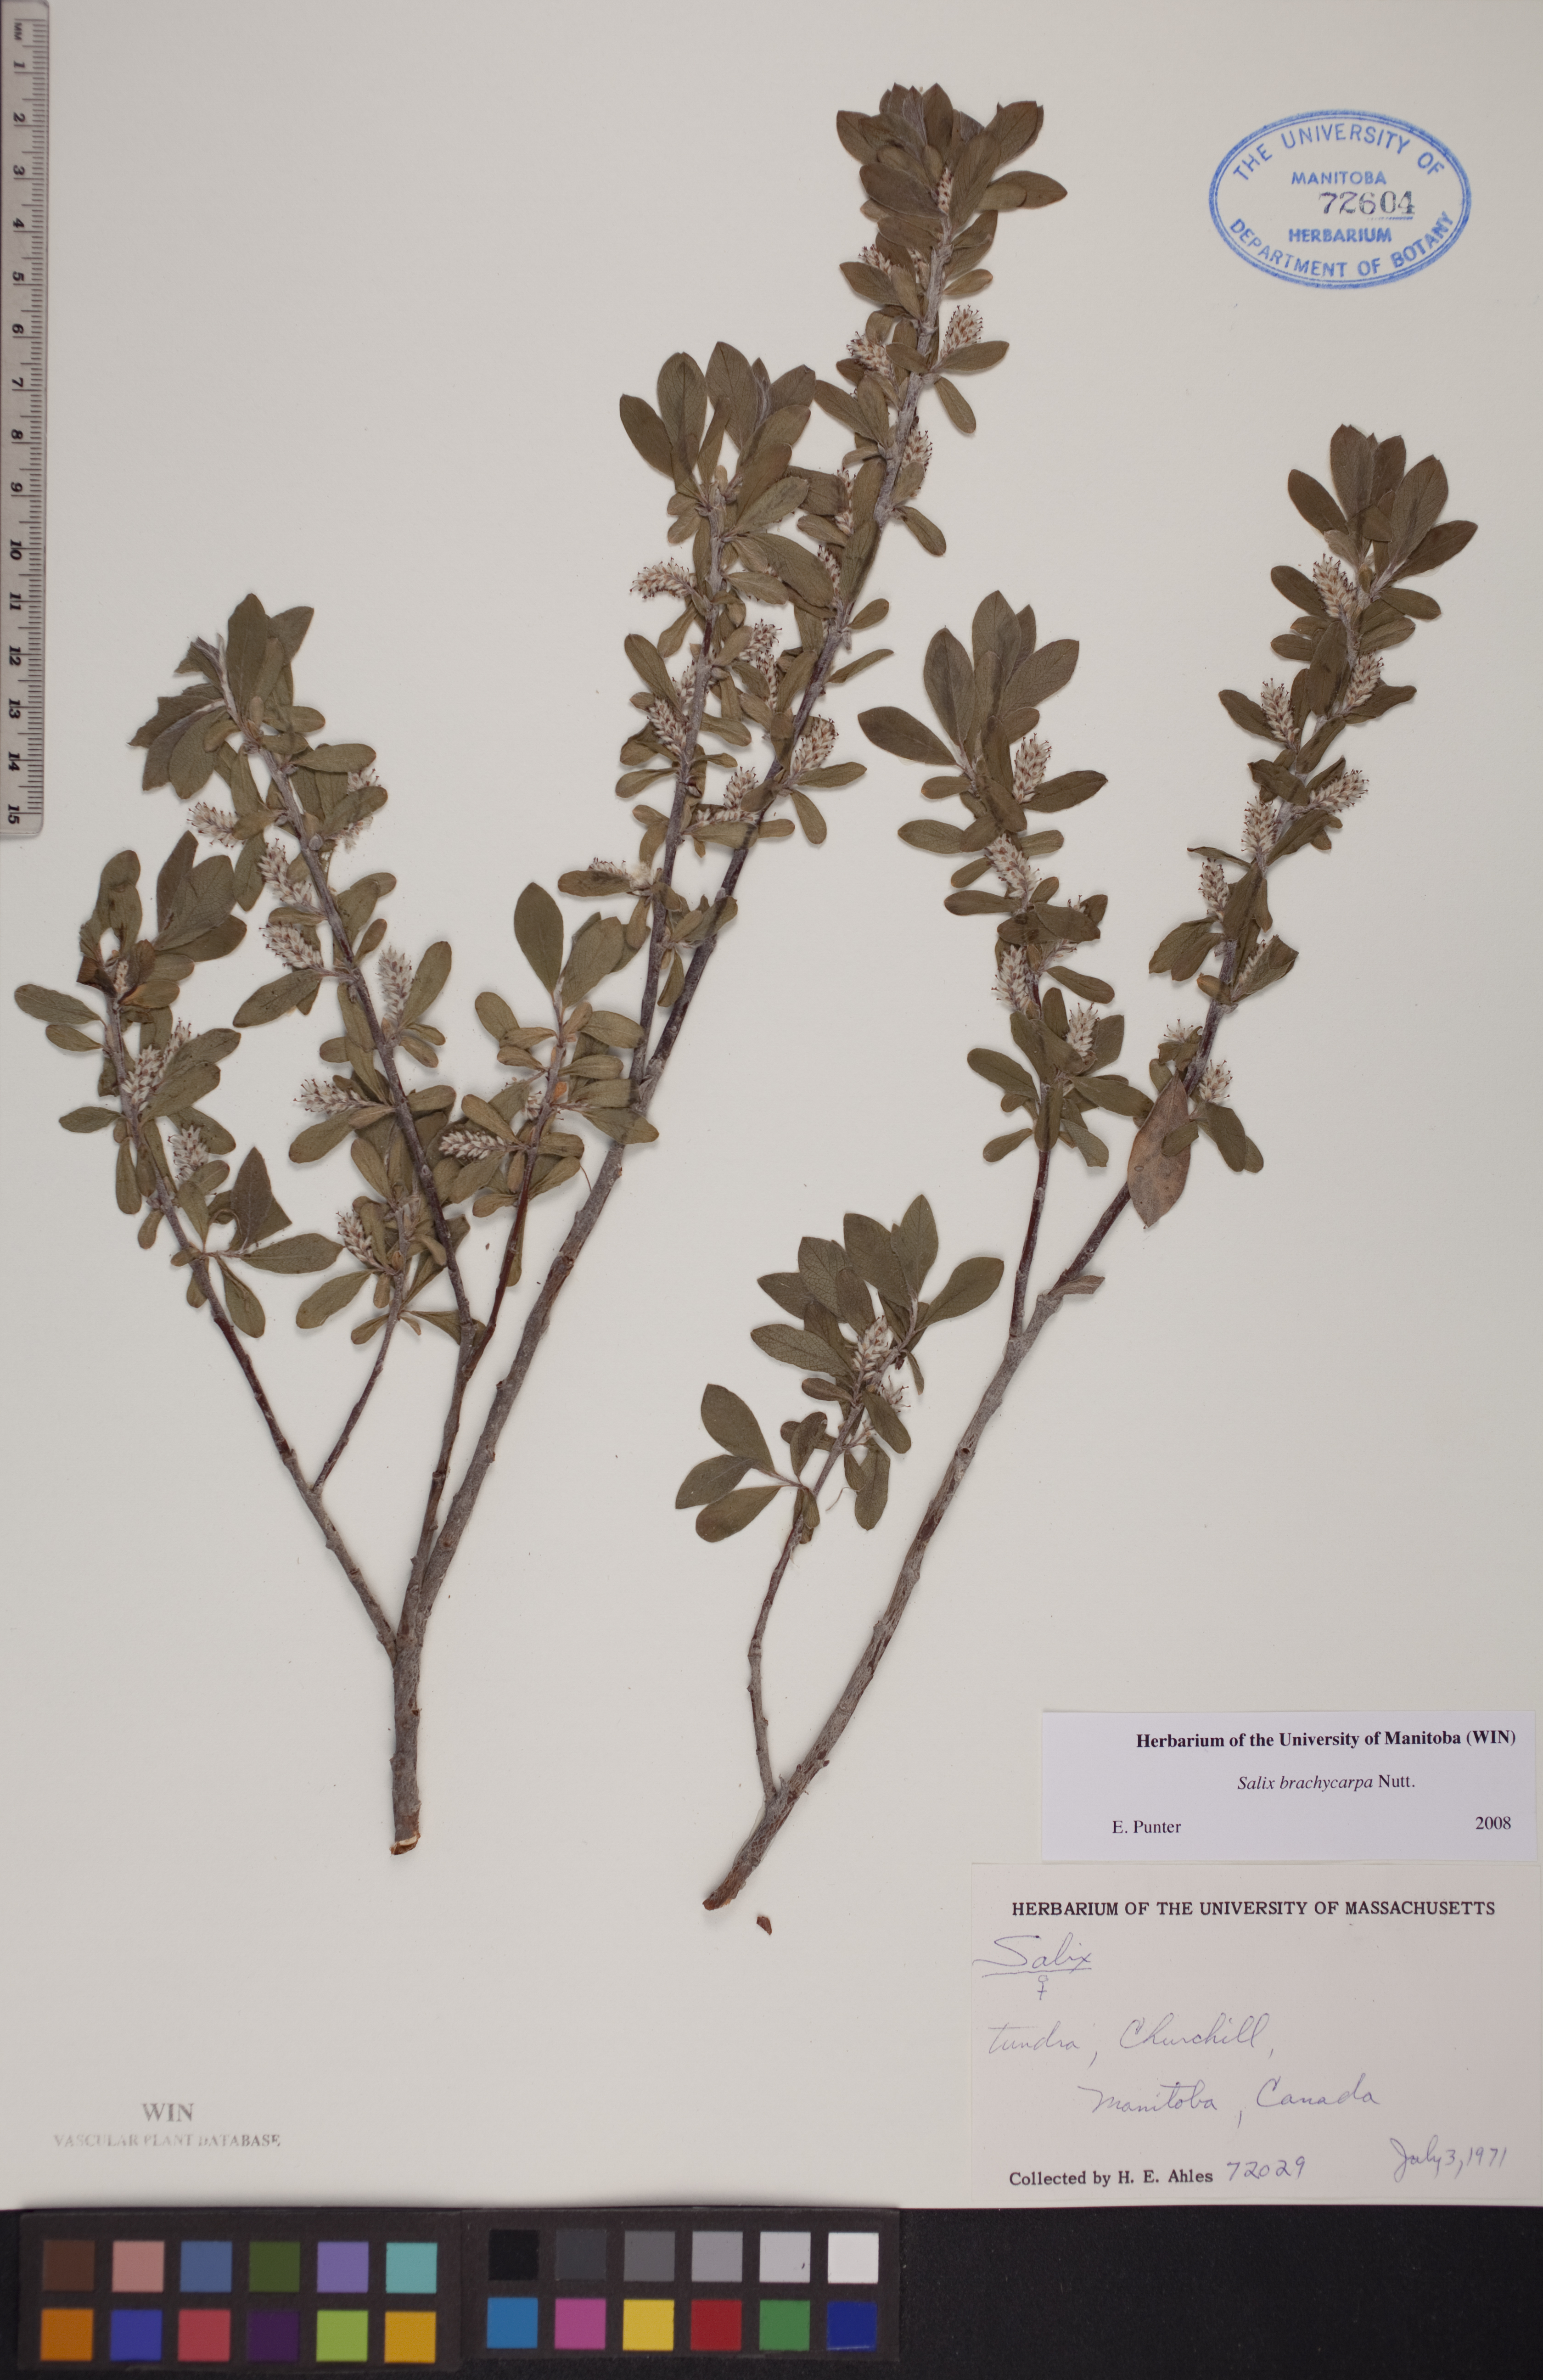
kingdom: Plantae
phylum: Tracheophyta
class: Magnoliopsida
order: Malpighiales
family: Salicaceae
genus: Salix
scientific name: Salix brachycarpa
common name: Barren-ground willow
